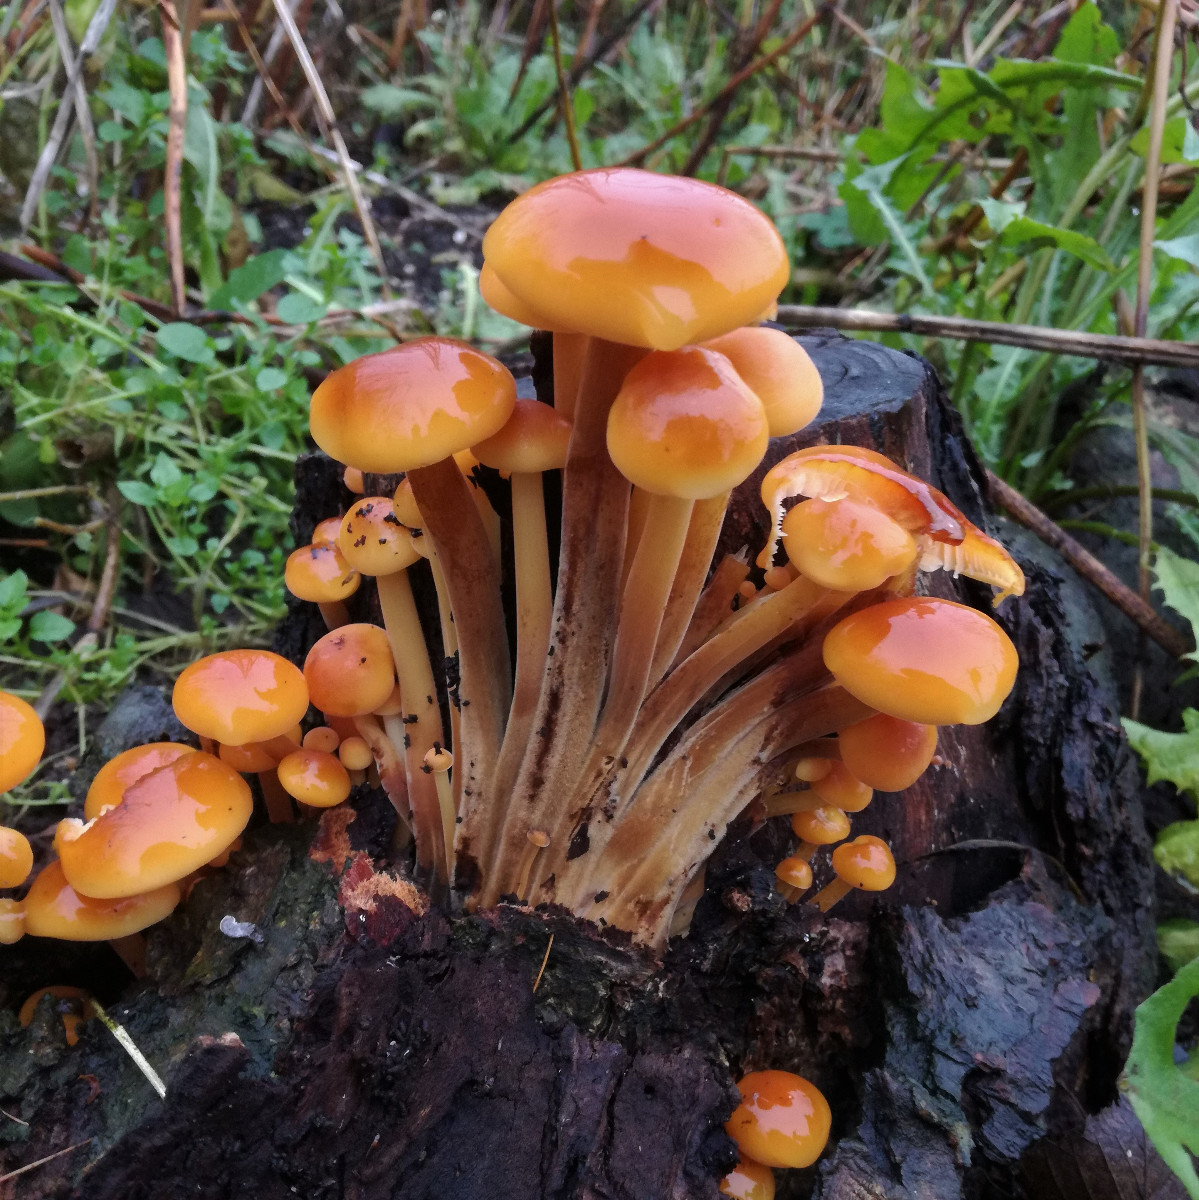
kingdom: Fungi
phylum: Basidiomycota
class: Agaricomycetes
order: Agaricales
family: Physalacriaceae
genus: Flammulina
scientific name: Flammulina velutipes
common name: gul fløjlsfod
